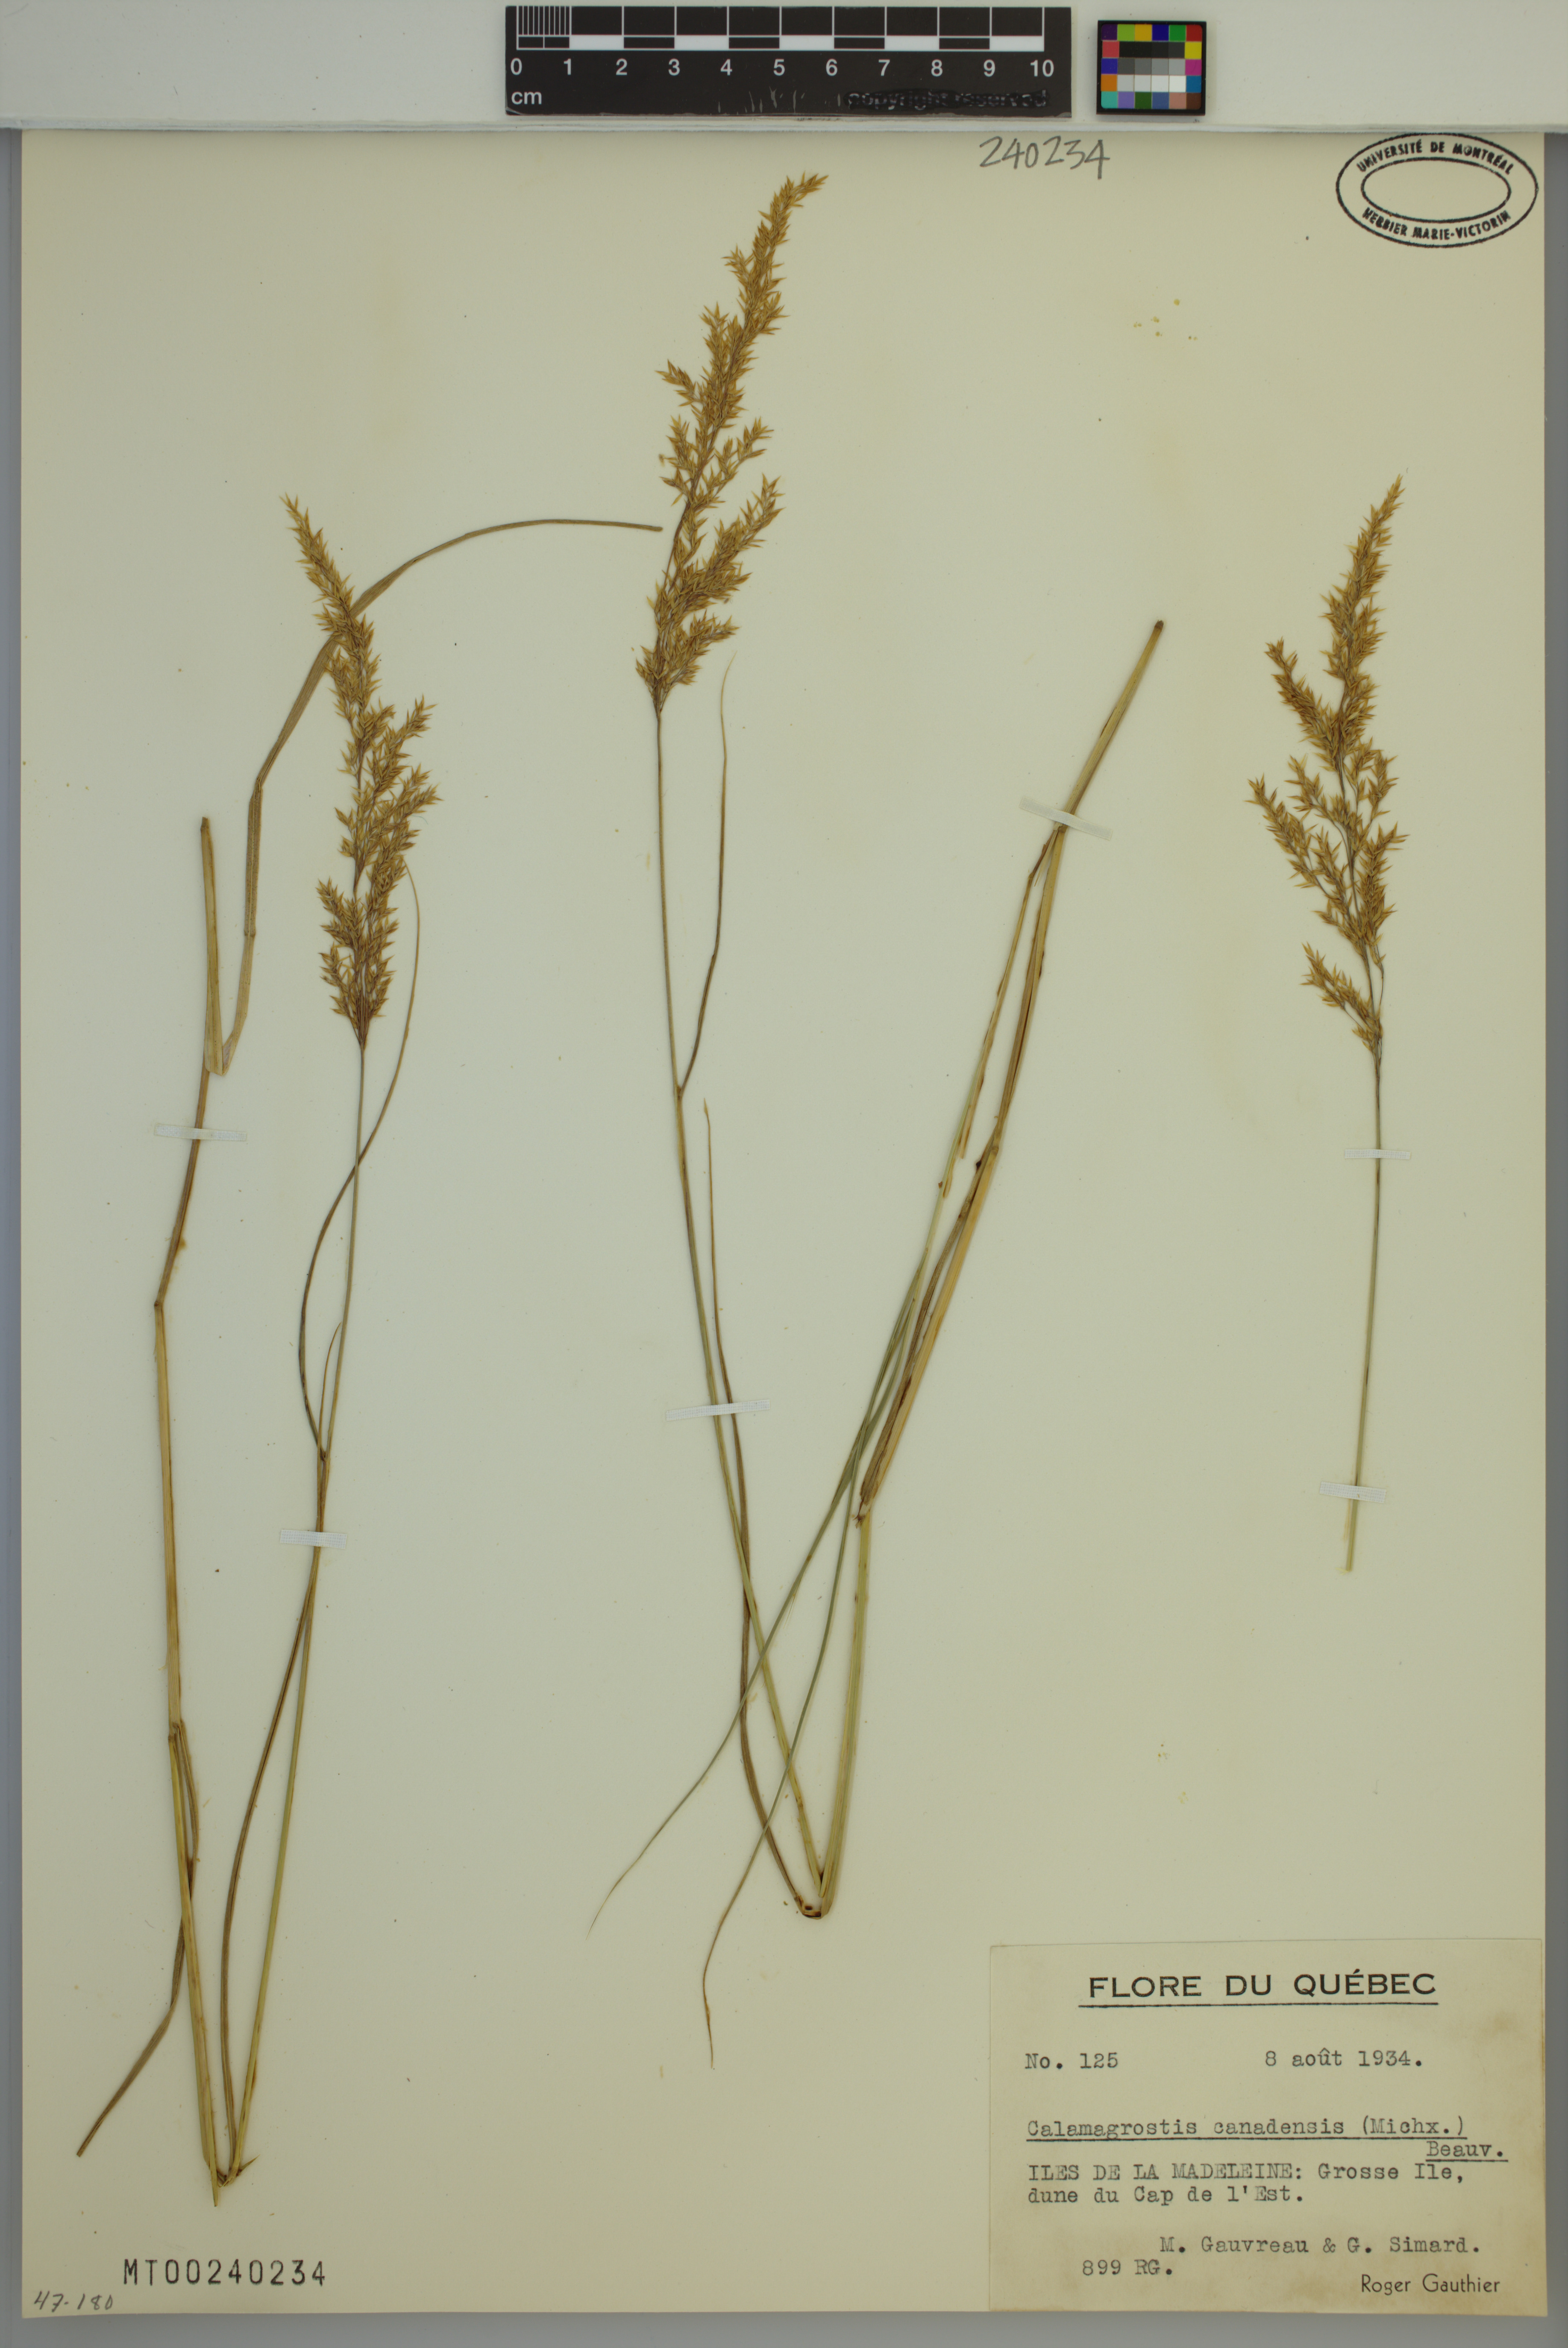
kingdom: Plantae
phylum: Tracheophyta
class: Liliopsida
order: Poales
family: Poaceae
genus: Calamagrostis
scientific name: Calamagrostis canadensis
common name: Canada bluejoint
